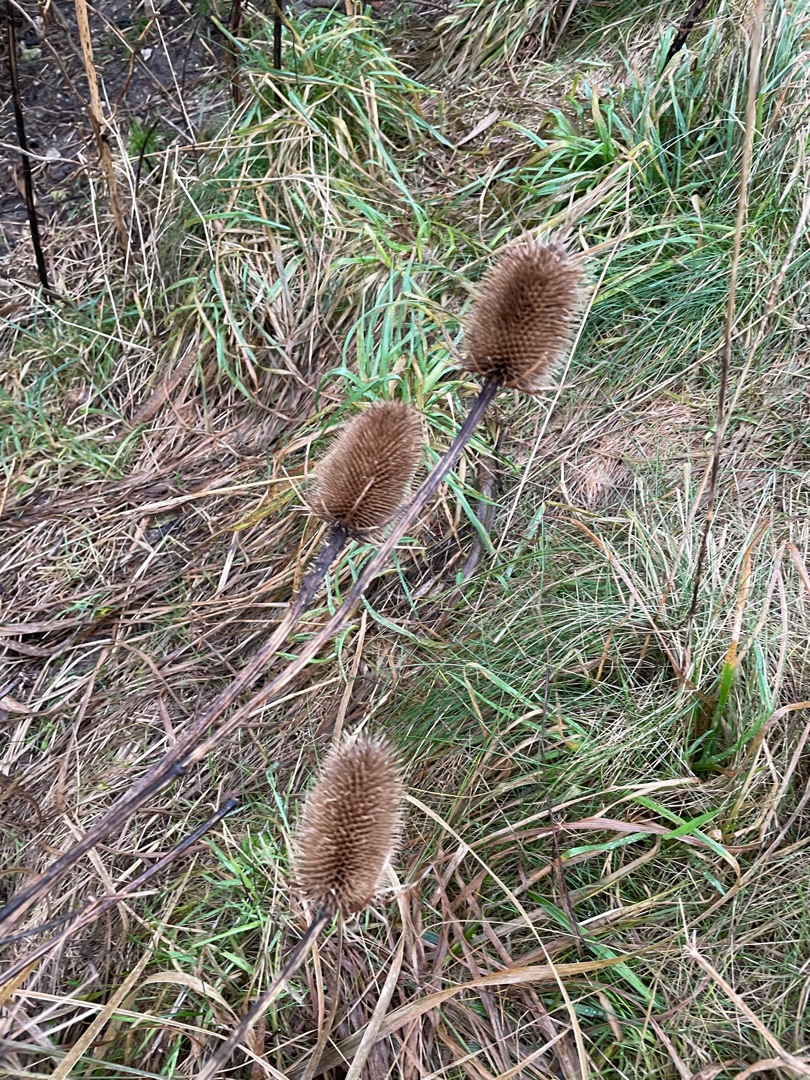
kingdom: Plantae
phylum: Tracheophyta
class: Magnoliopsida
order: Dipsacales
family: Caprifoliaceae
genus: Dipsacus
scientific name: Dipsacus fullonum
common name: Gærde-kartebolle
